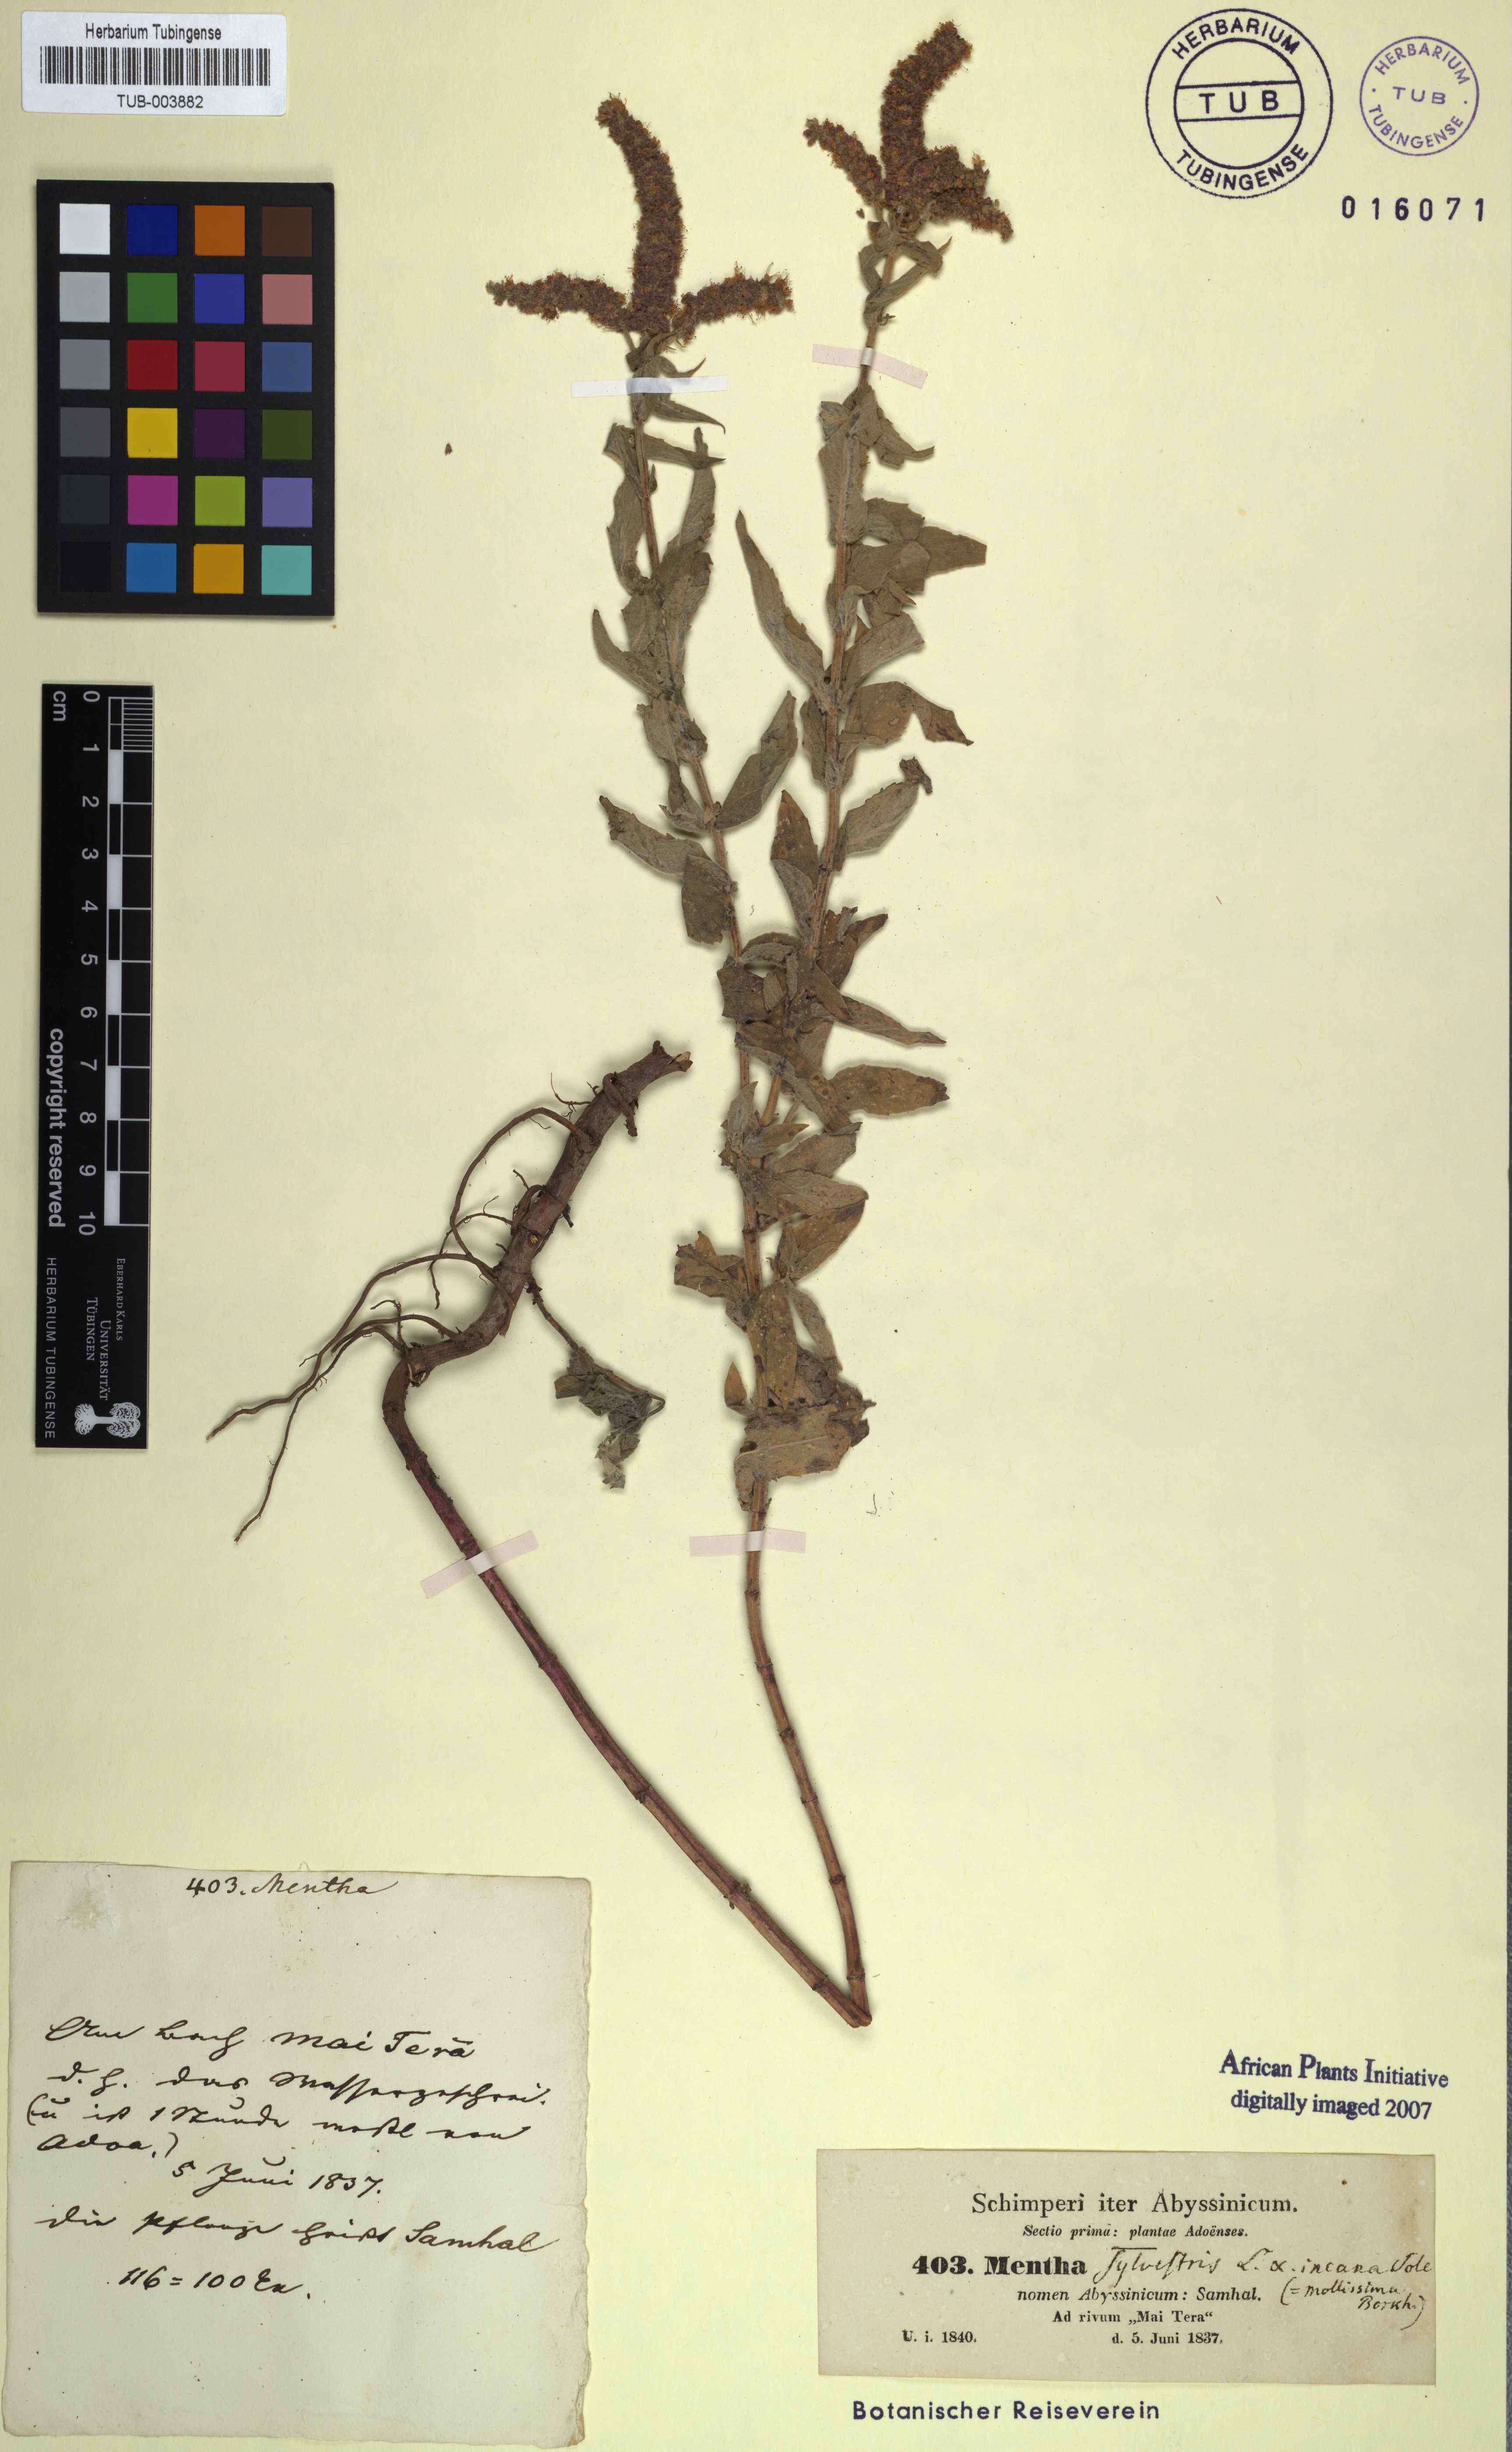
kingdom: Plantae
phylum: Tracheophyta
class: Magnoliopsida
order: Lamiales
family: Lamiaceae
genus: Mentha
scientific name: Mentha longifolia
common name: Horse mint
